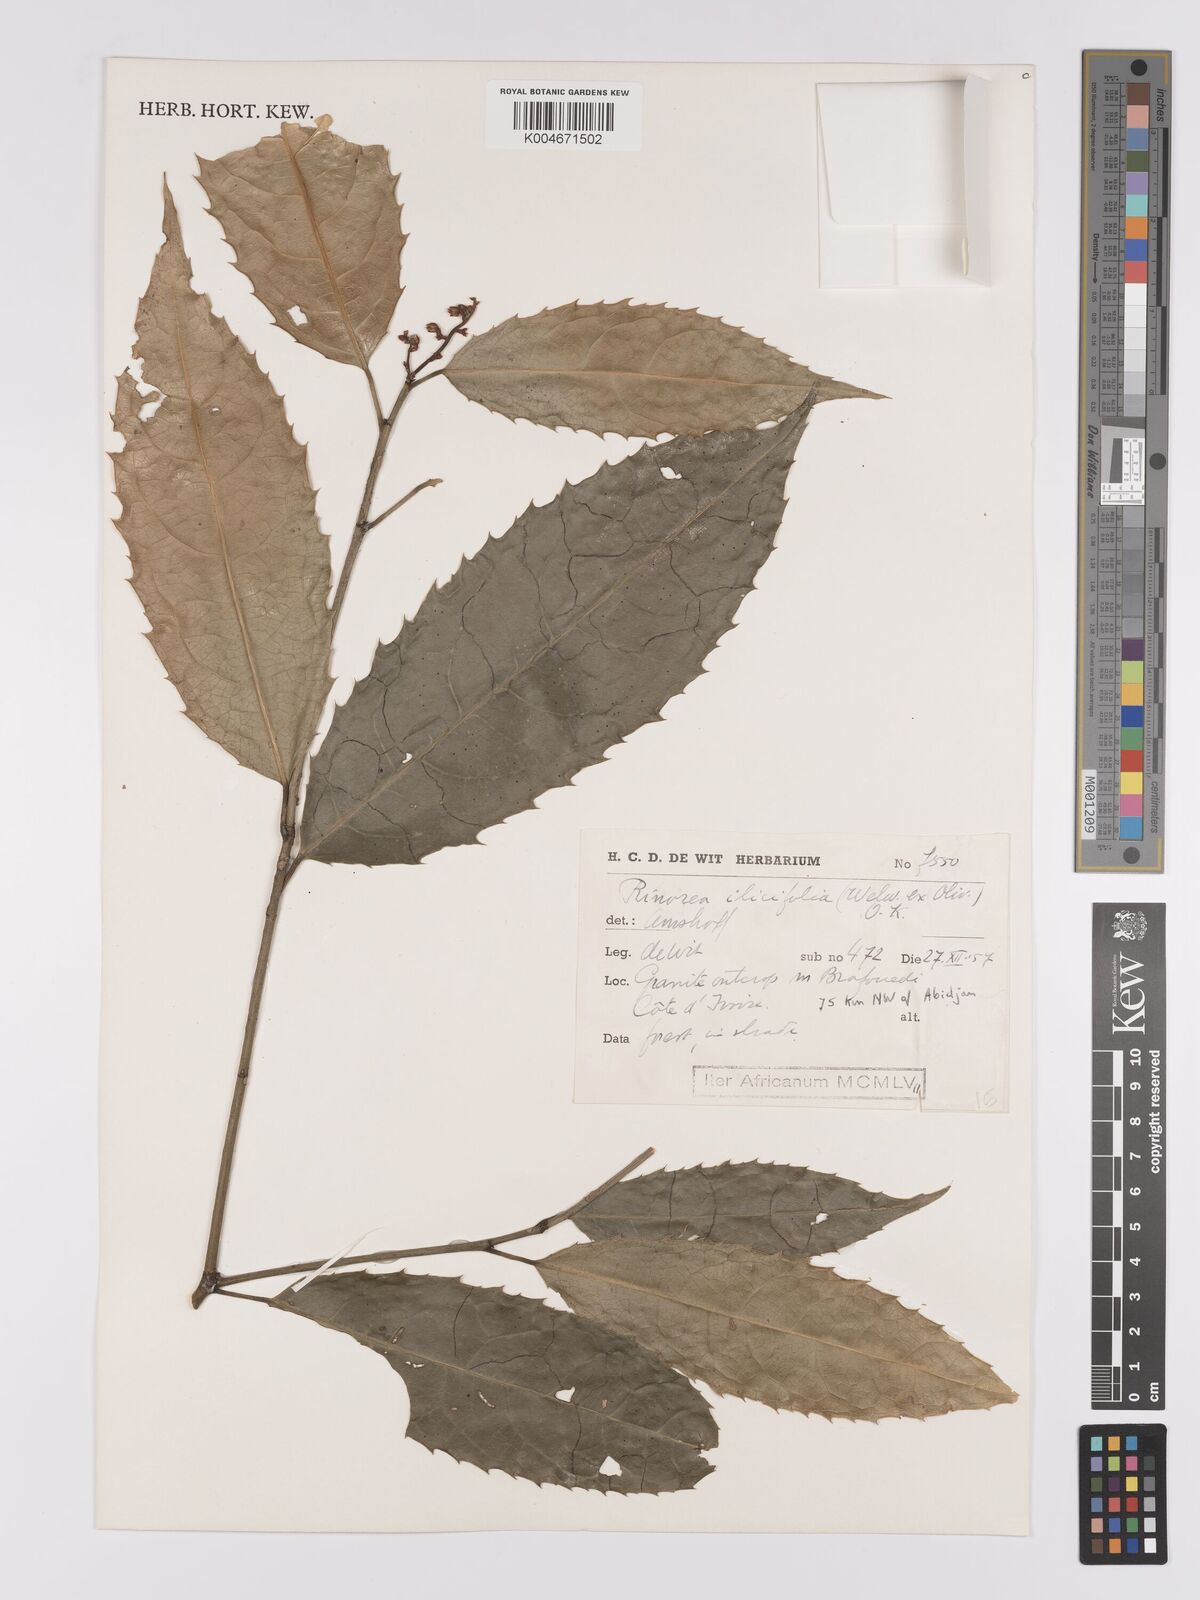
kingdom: Plantae
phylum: Tracheophyta
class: Magnoliopsida
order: Malpighiales
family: Violaceae
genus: Rinorea
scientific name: Rinorea ilicifolia
